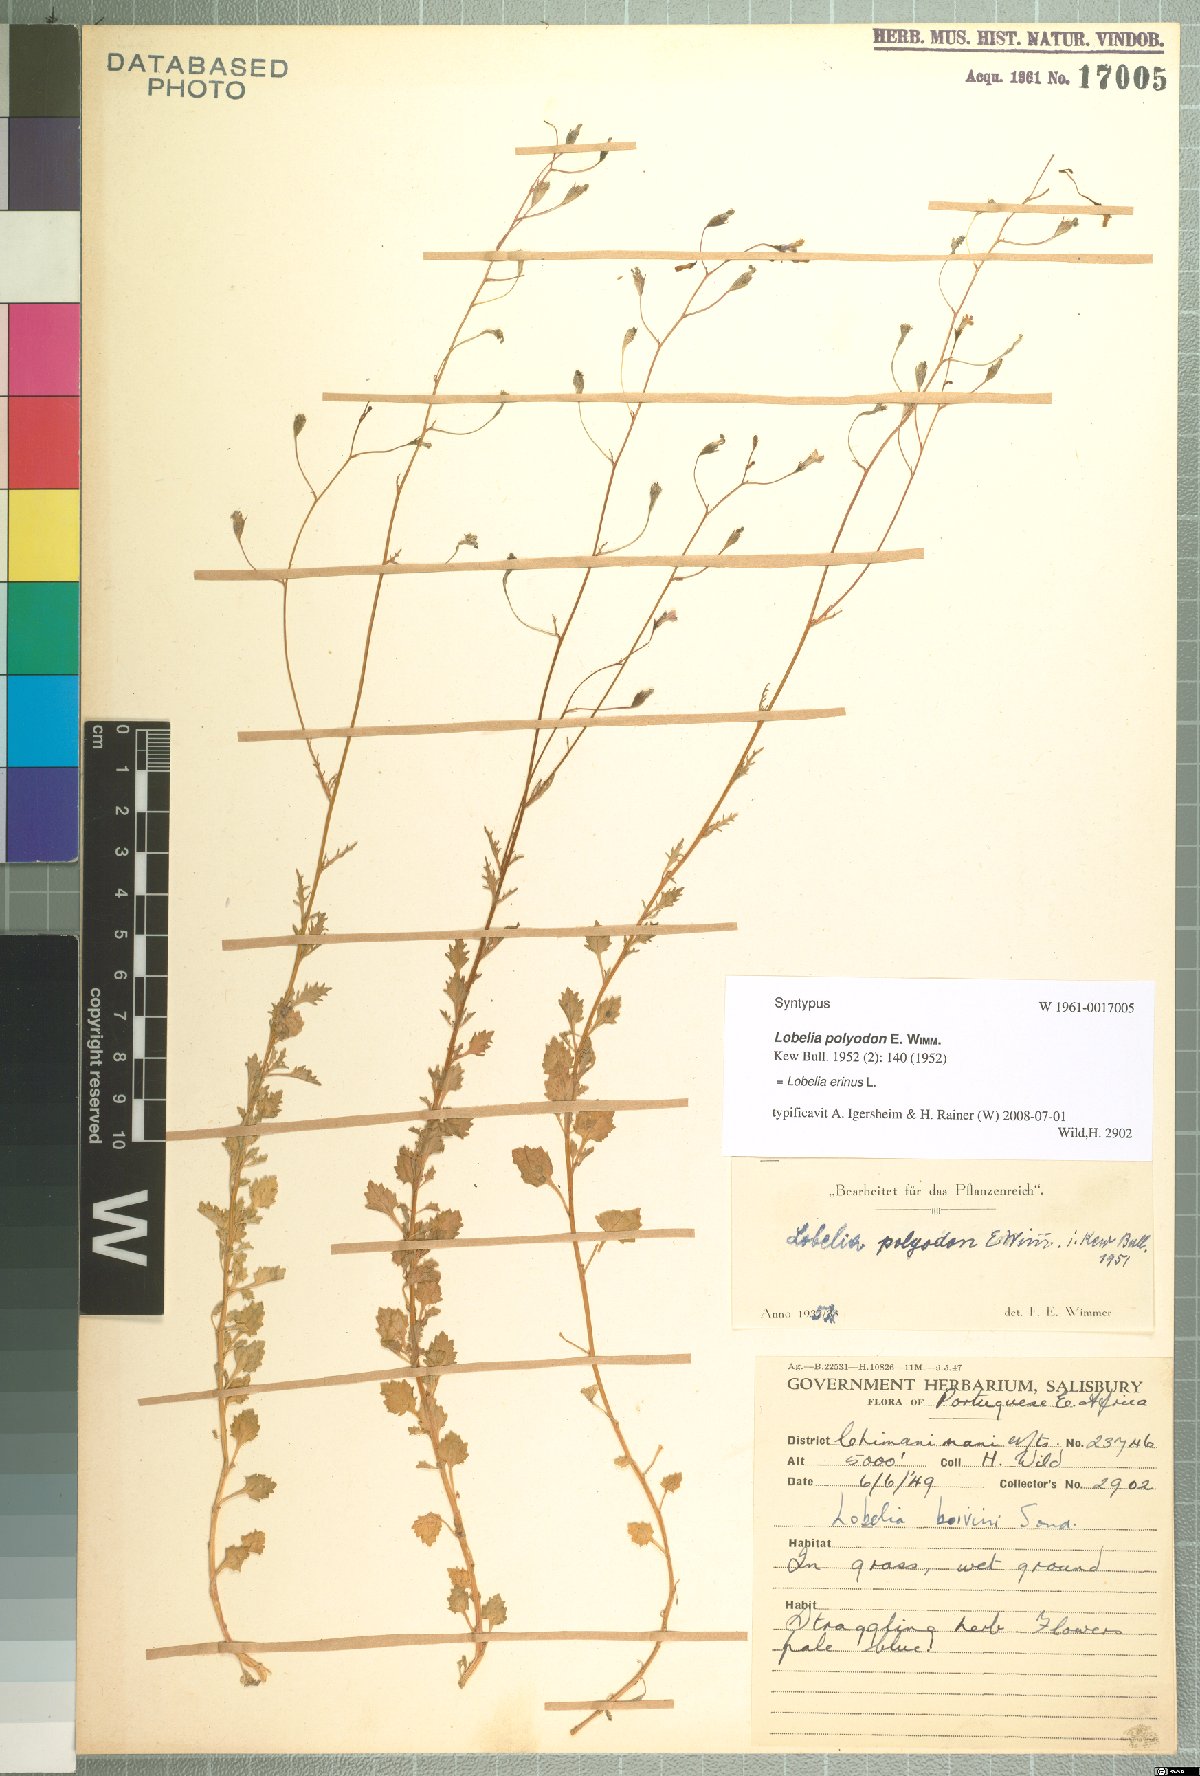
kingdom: Plantae
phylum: Tracheophyta
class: Magnoliopsida
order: Asterales
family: Campanulaceae
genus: Lobelia
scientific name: Lobelia erinus
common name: Edging lobelia
